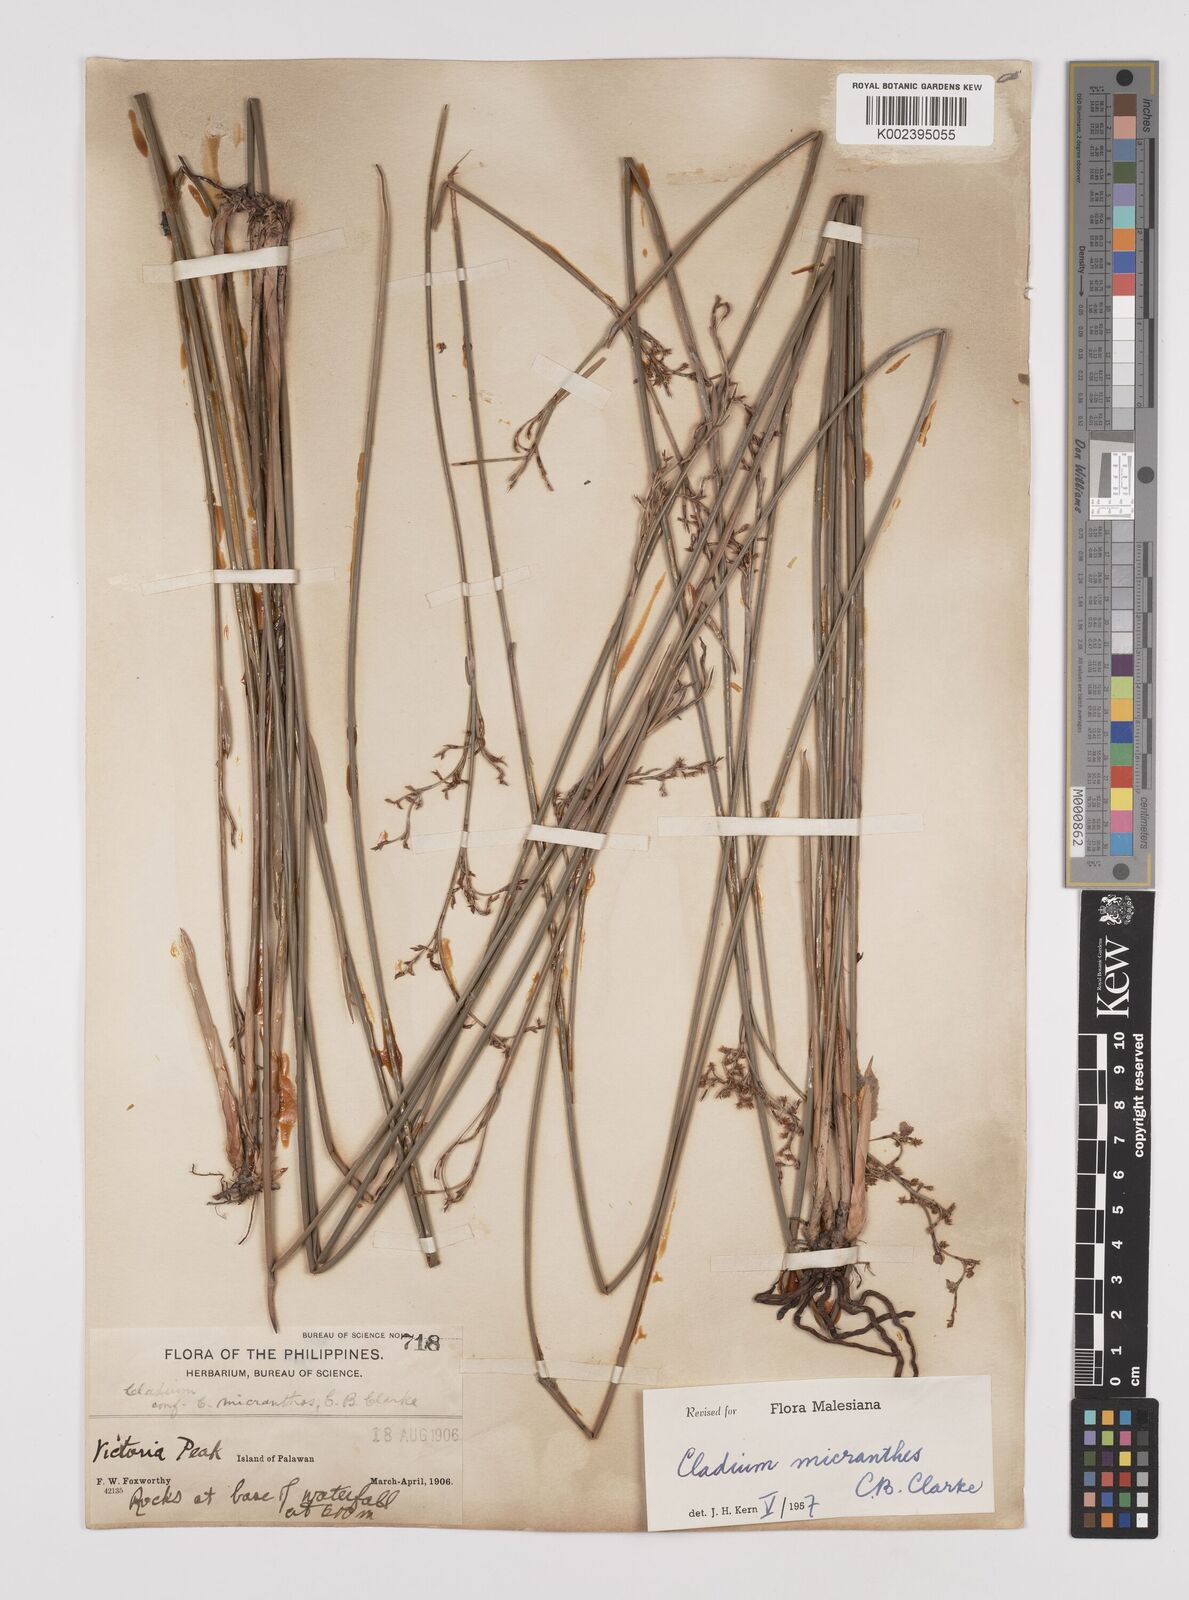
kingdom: Plantae
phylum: Tracheophyta
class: Liliopsida
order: Poales
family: Cyperaceae
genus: Machaerina
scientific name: Machaerina disticha
